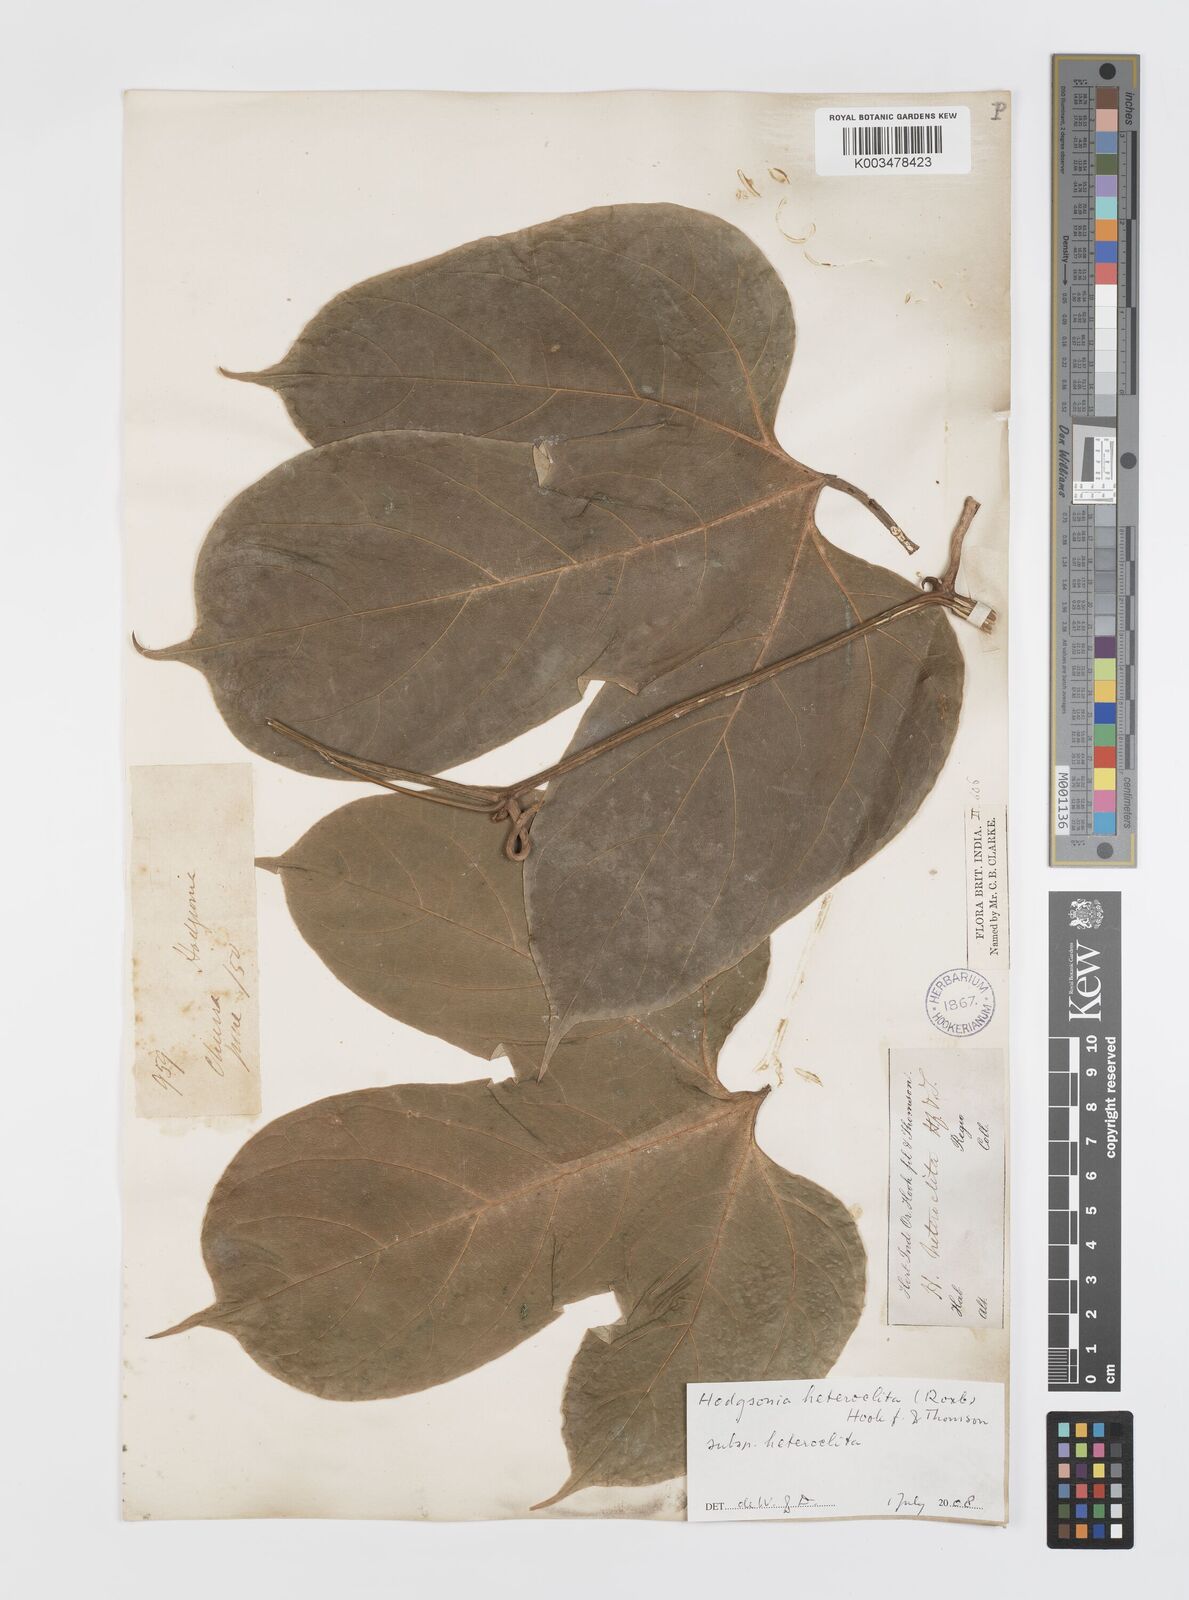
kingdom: Plantae
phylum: Tracheophyta
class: Magnoliopsida
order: Cucurbitales
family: Cucurbitaceae
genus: Hodgsonia
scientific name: Hodgsonia macrocarpa
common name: Chinese lardfruit
